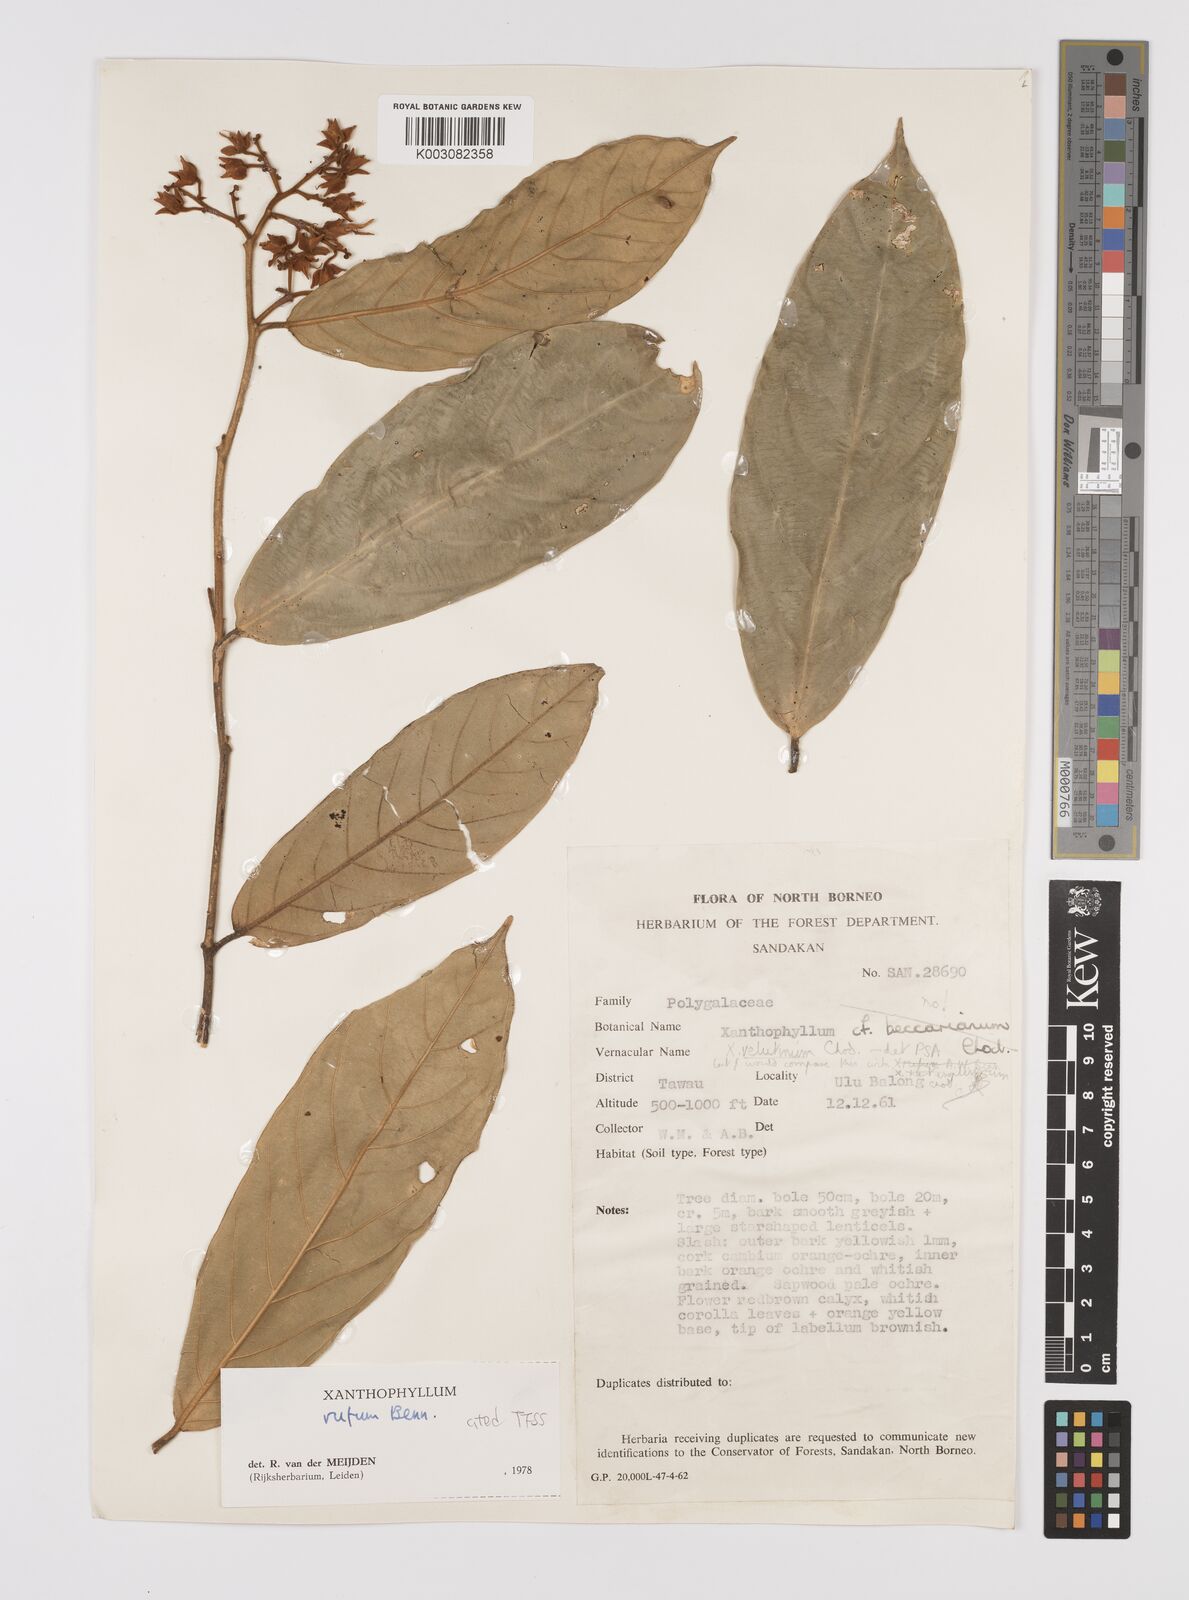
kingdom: Plantae
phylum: Tracheophyta
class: Magnoliopsida
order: Fabales
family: Polygalaceae
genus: Xanthophyllum
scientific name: Xanthophyllum rufum
